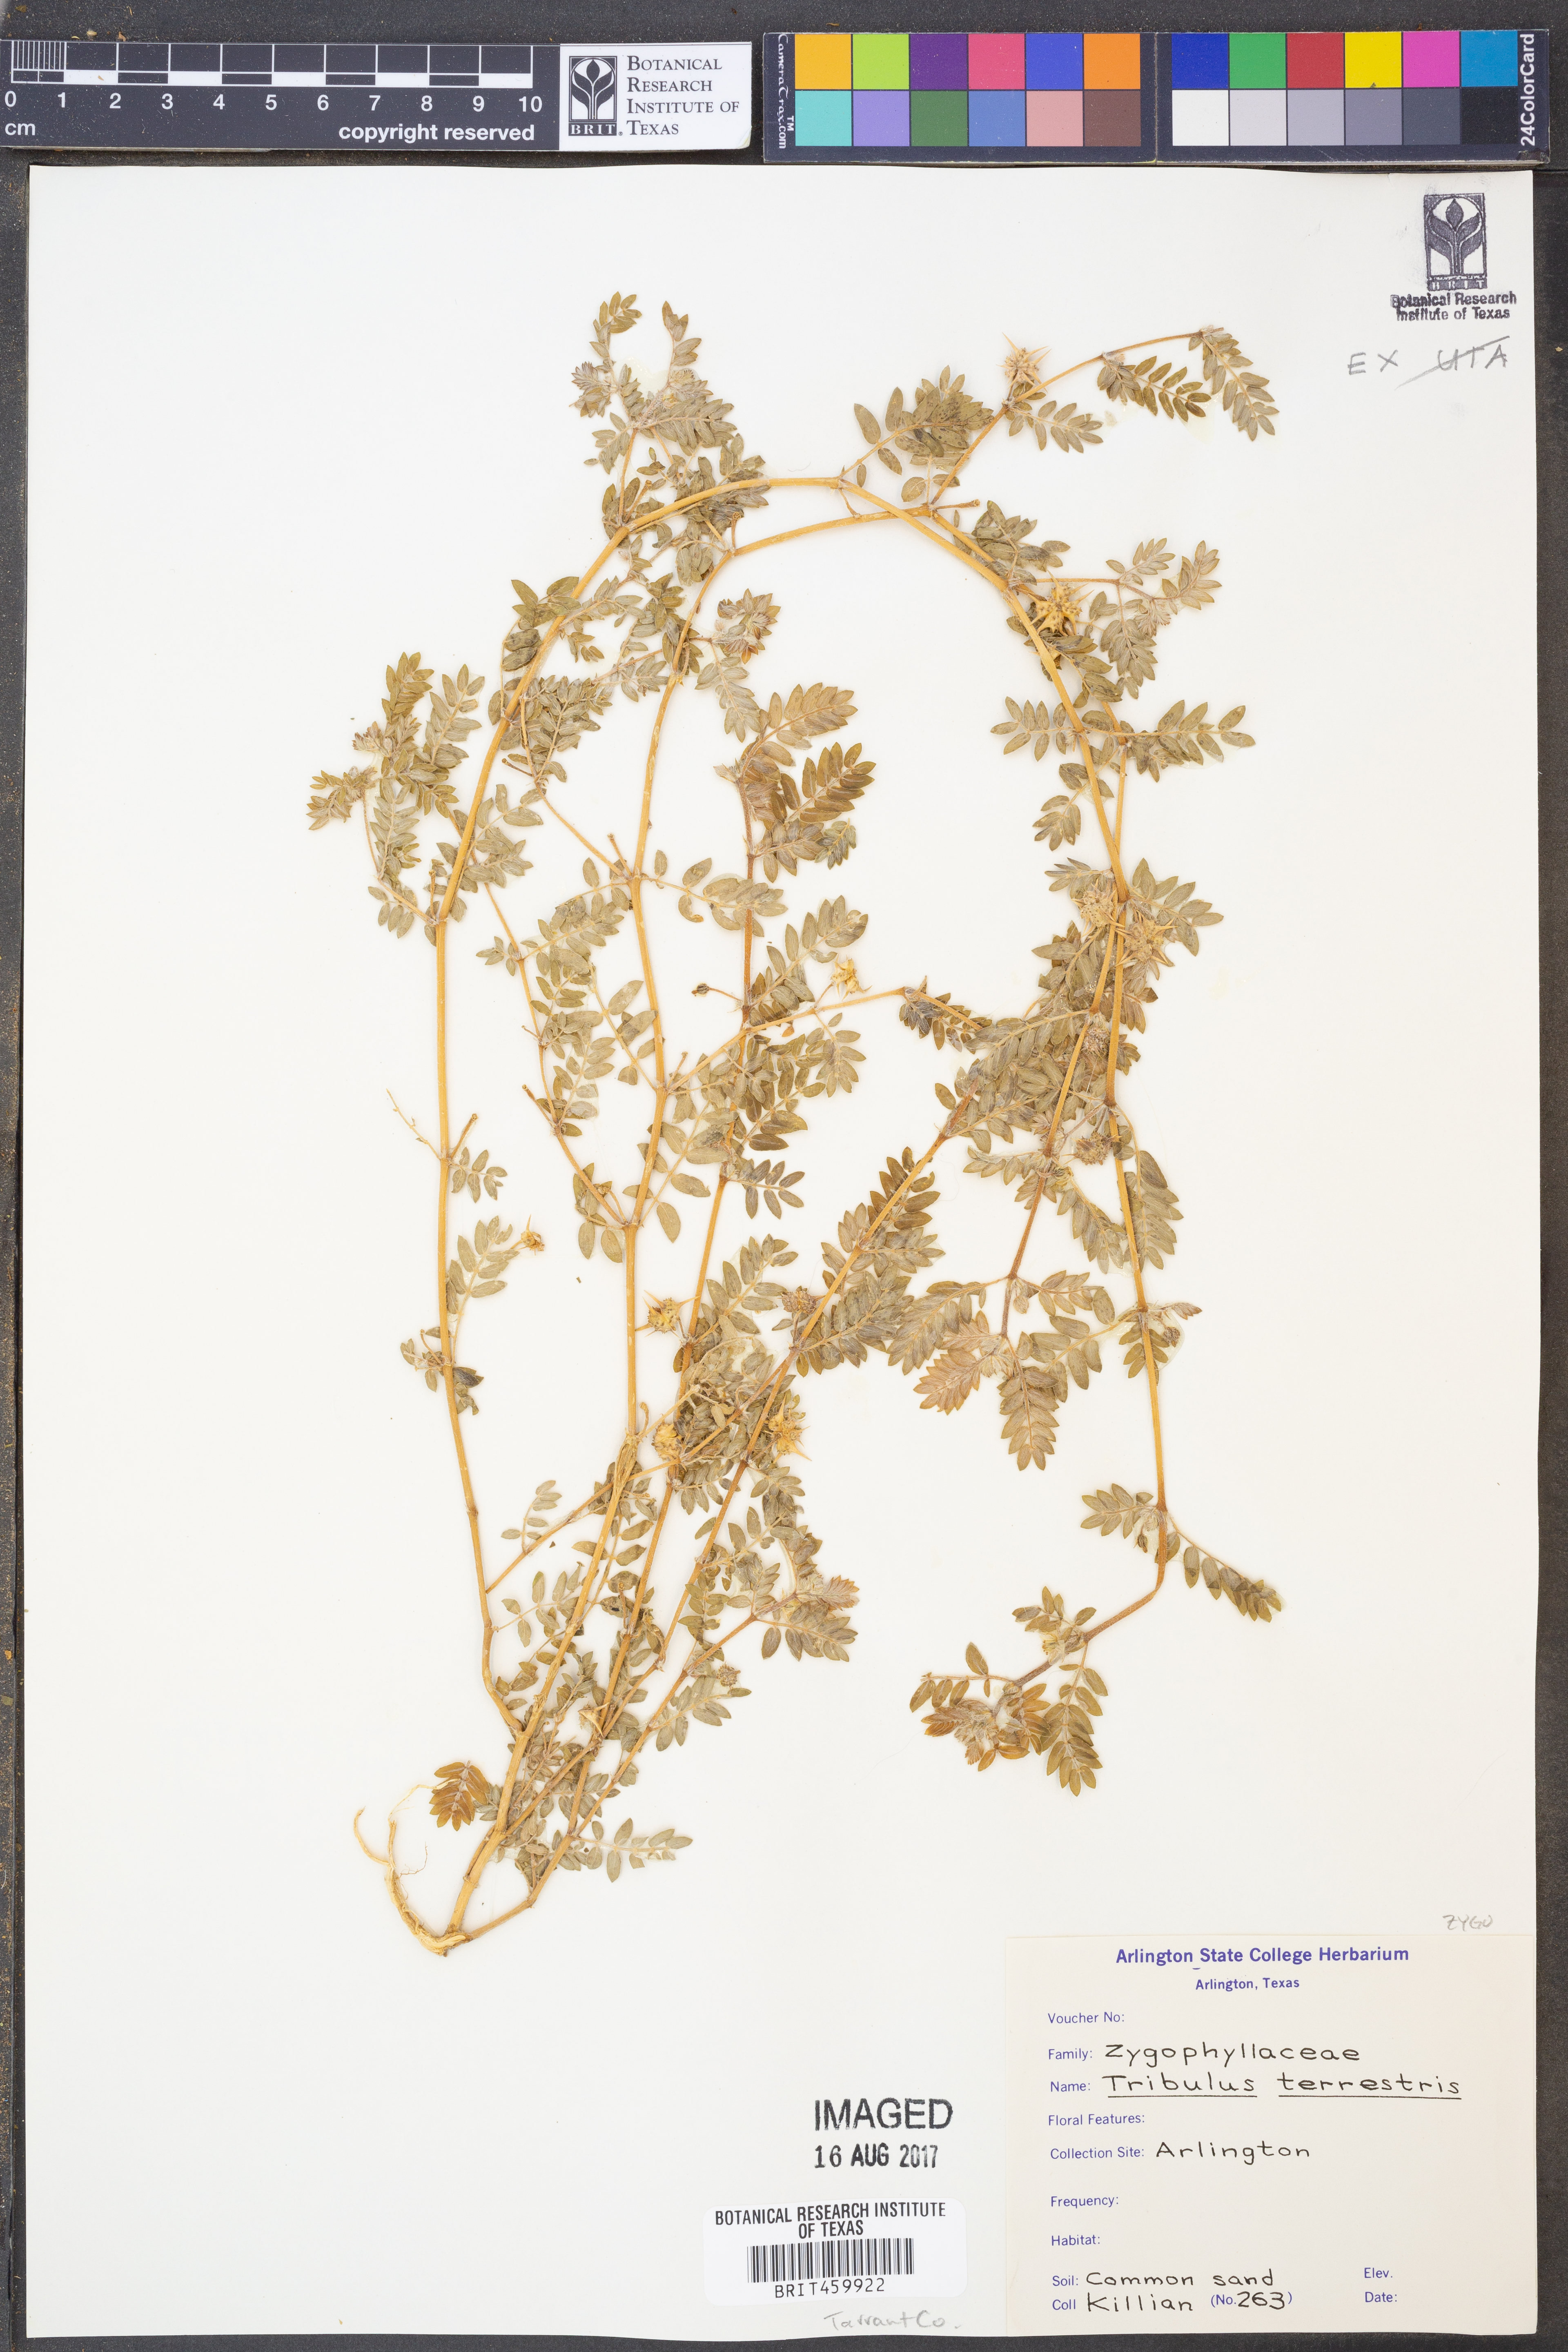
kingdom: Plantae
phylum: Tracheophyta
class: Magnoliopsida
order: Zygophyllales
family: Zygophyllaceae
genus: Tribulus
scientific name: Tribulus terrestris
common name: Puncturevine
